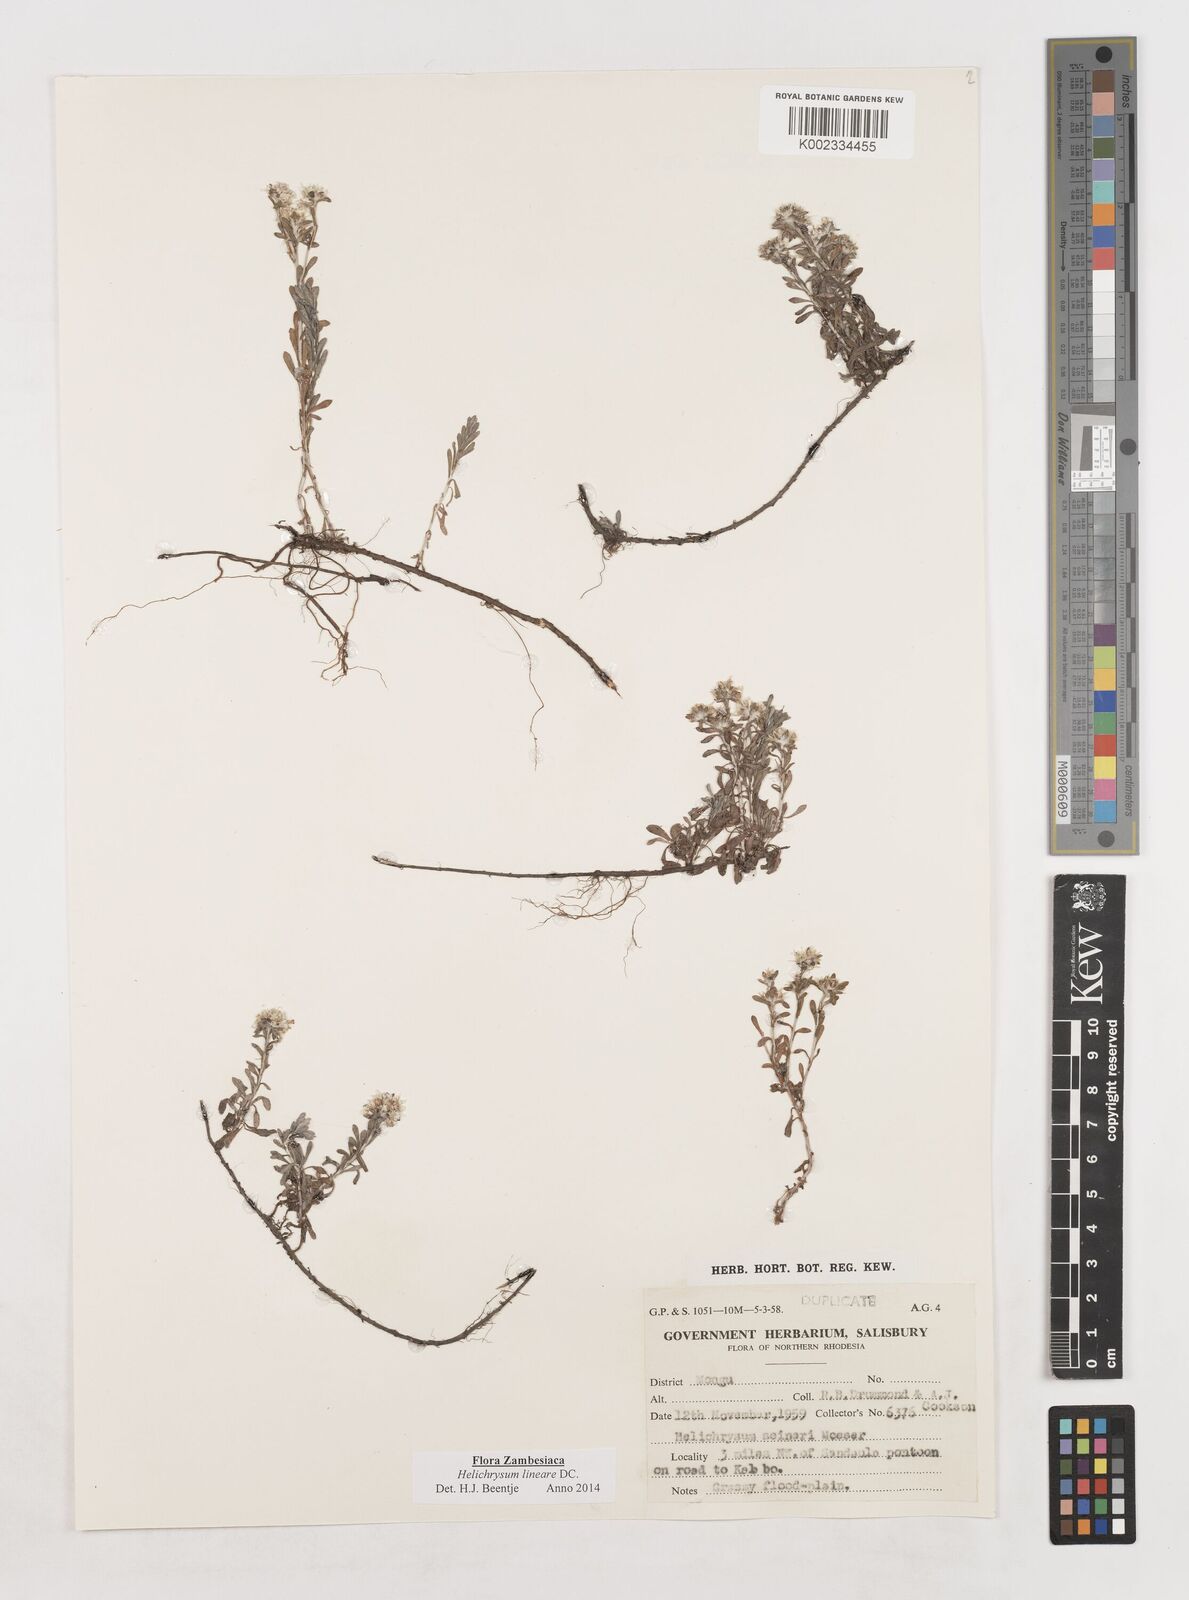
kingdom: Plantae
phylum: Tracheophyta
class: Magnoliopsida
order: Asterales
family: Asteraceae
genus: Helichrysum
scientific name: Helichrysum lineare
